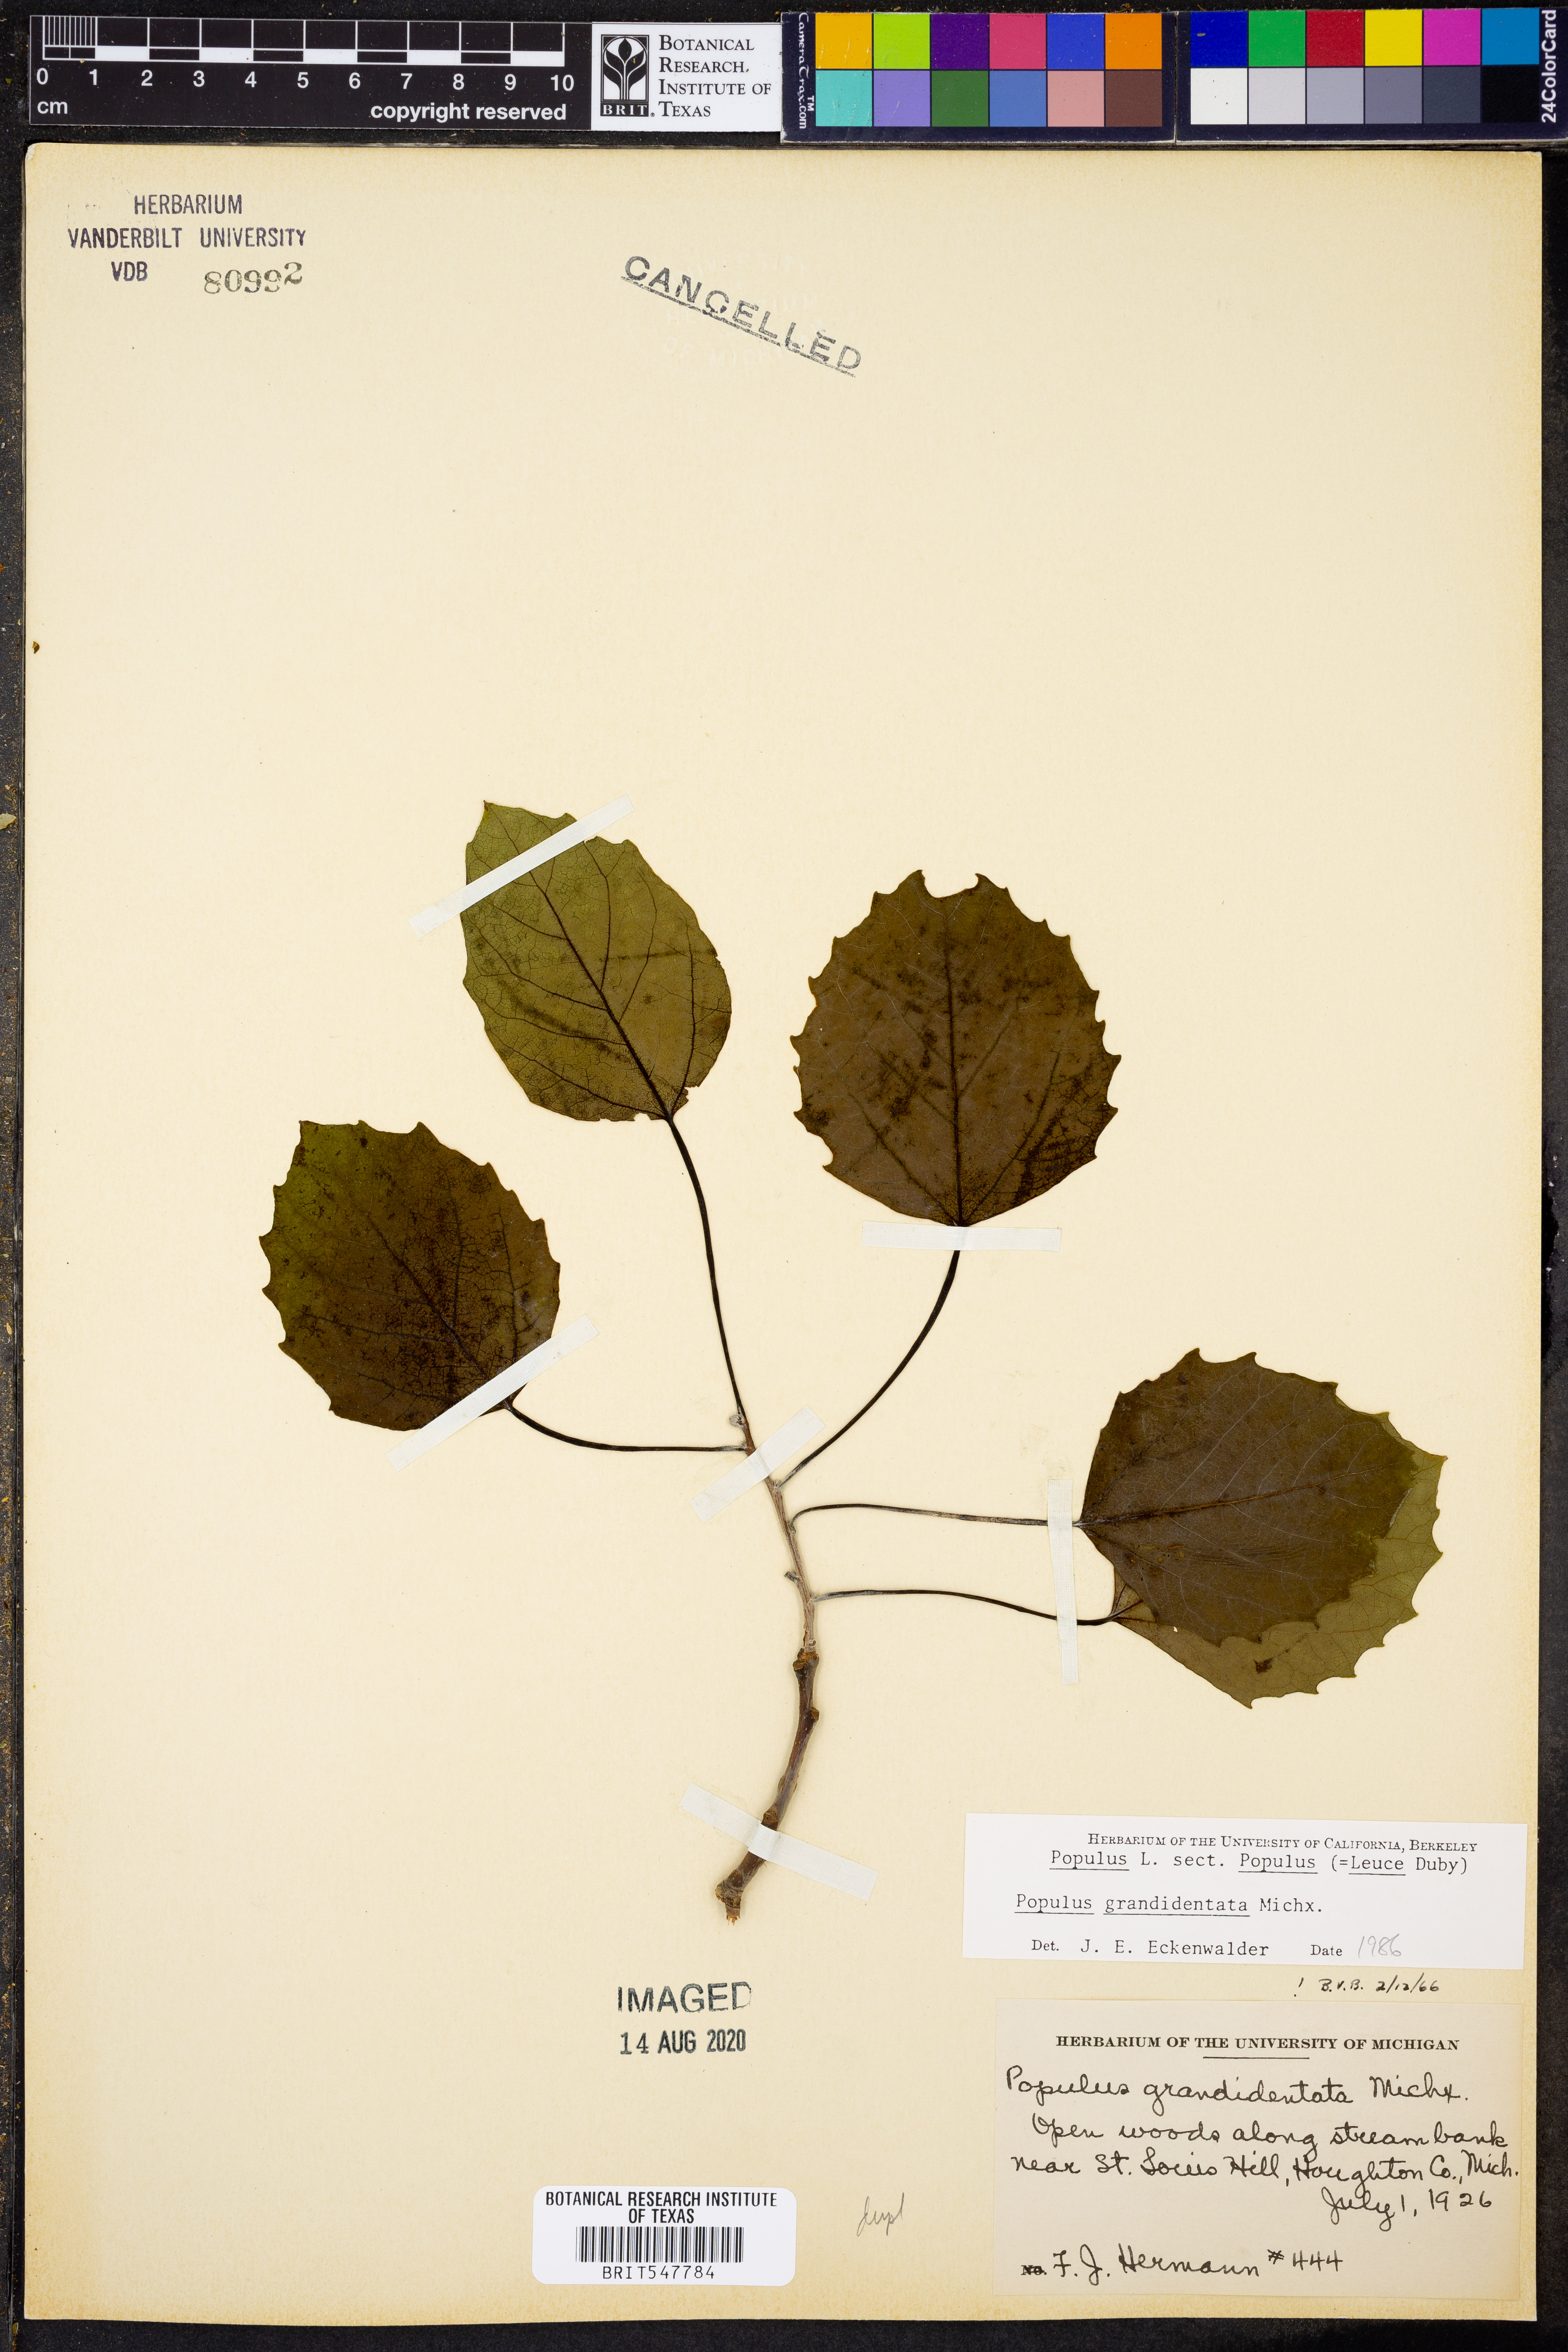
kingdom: Plantae
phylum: Tracheophyta
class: Magnoliopsida
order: Malpighiales
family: Salicaceae
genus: Populus
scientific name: Populus grandidentata
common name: Bigtooth aspen
